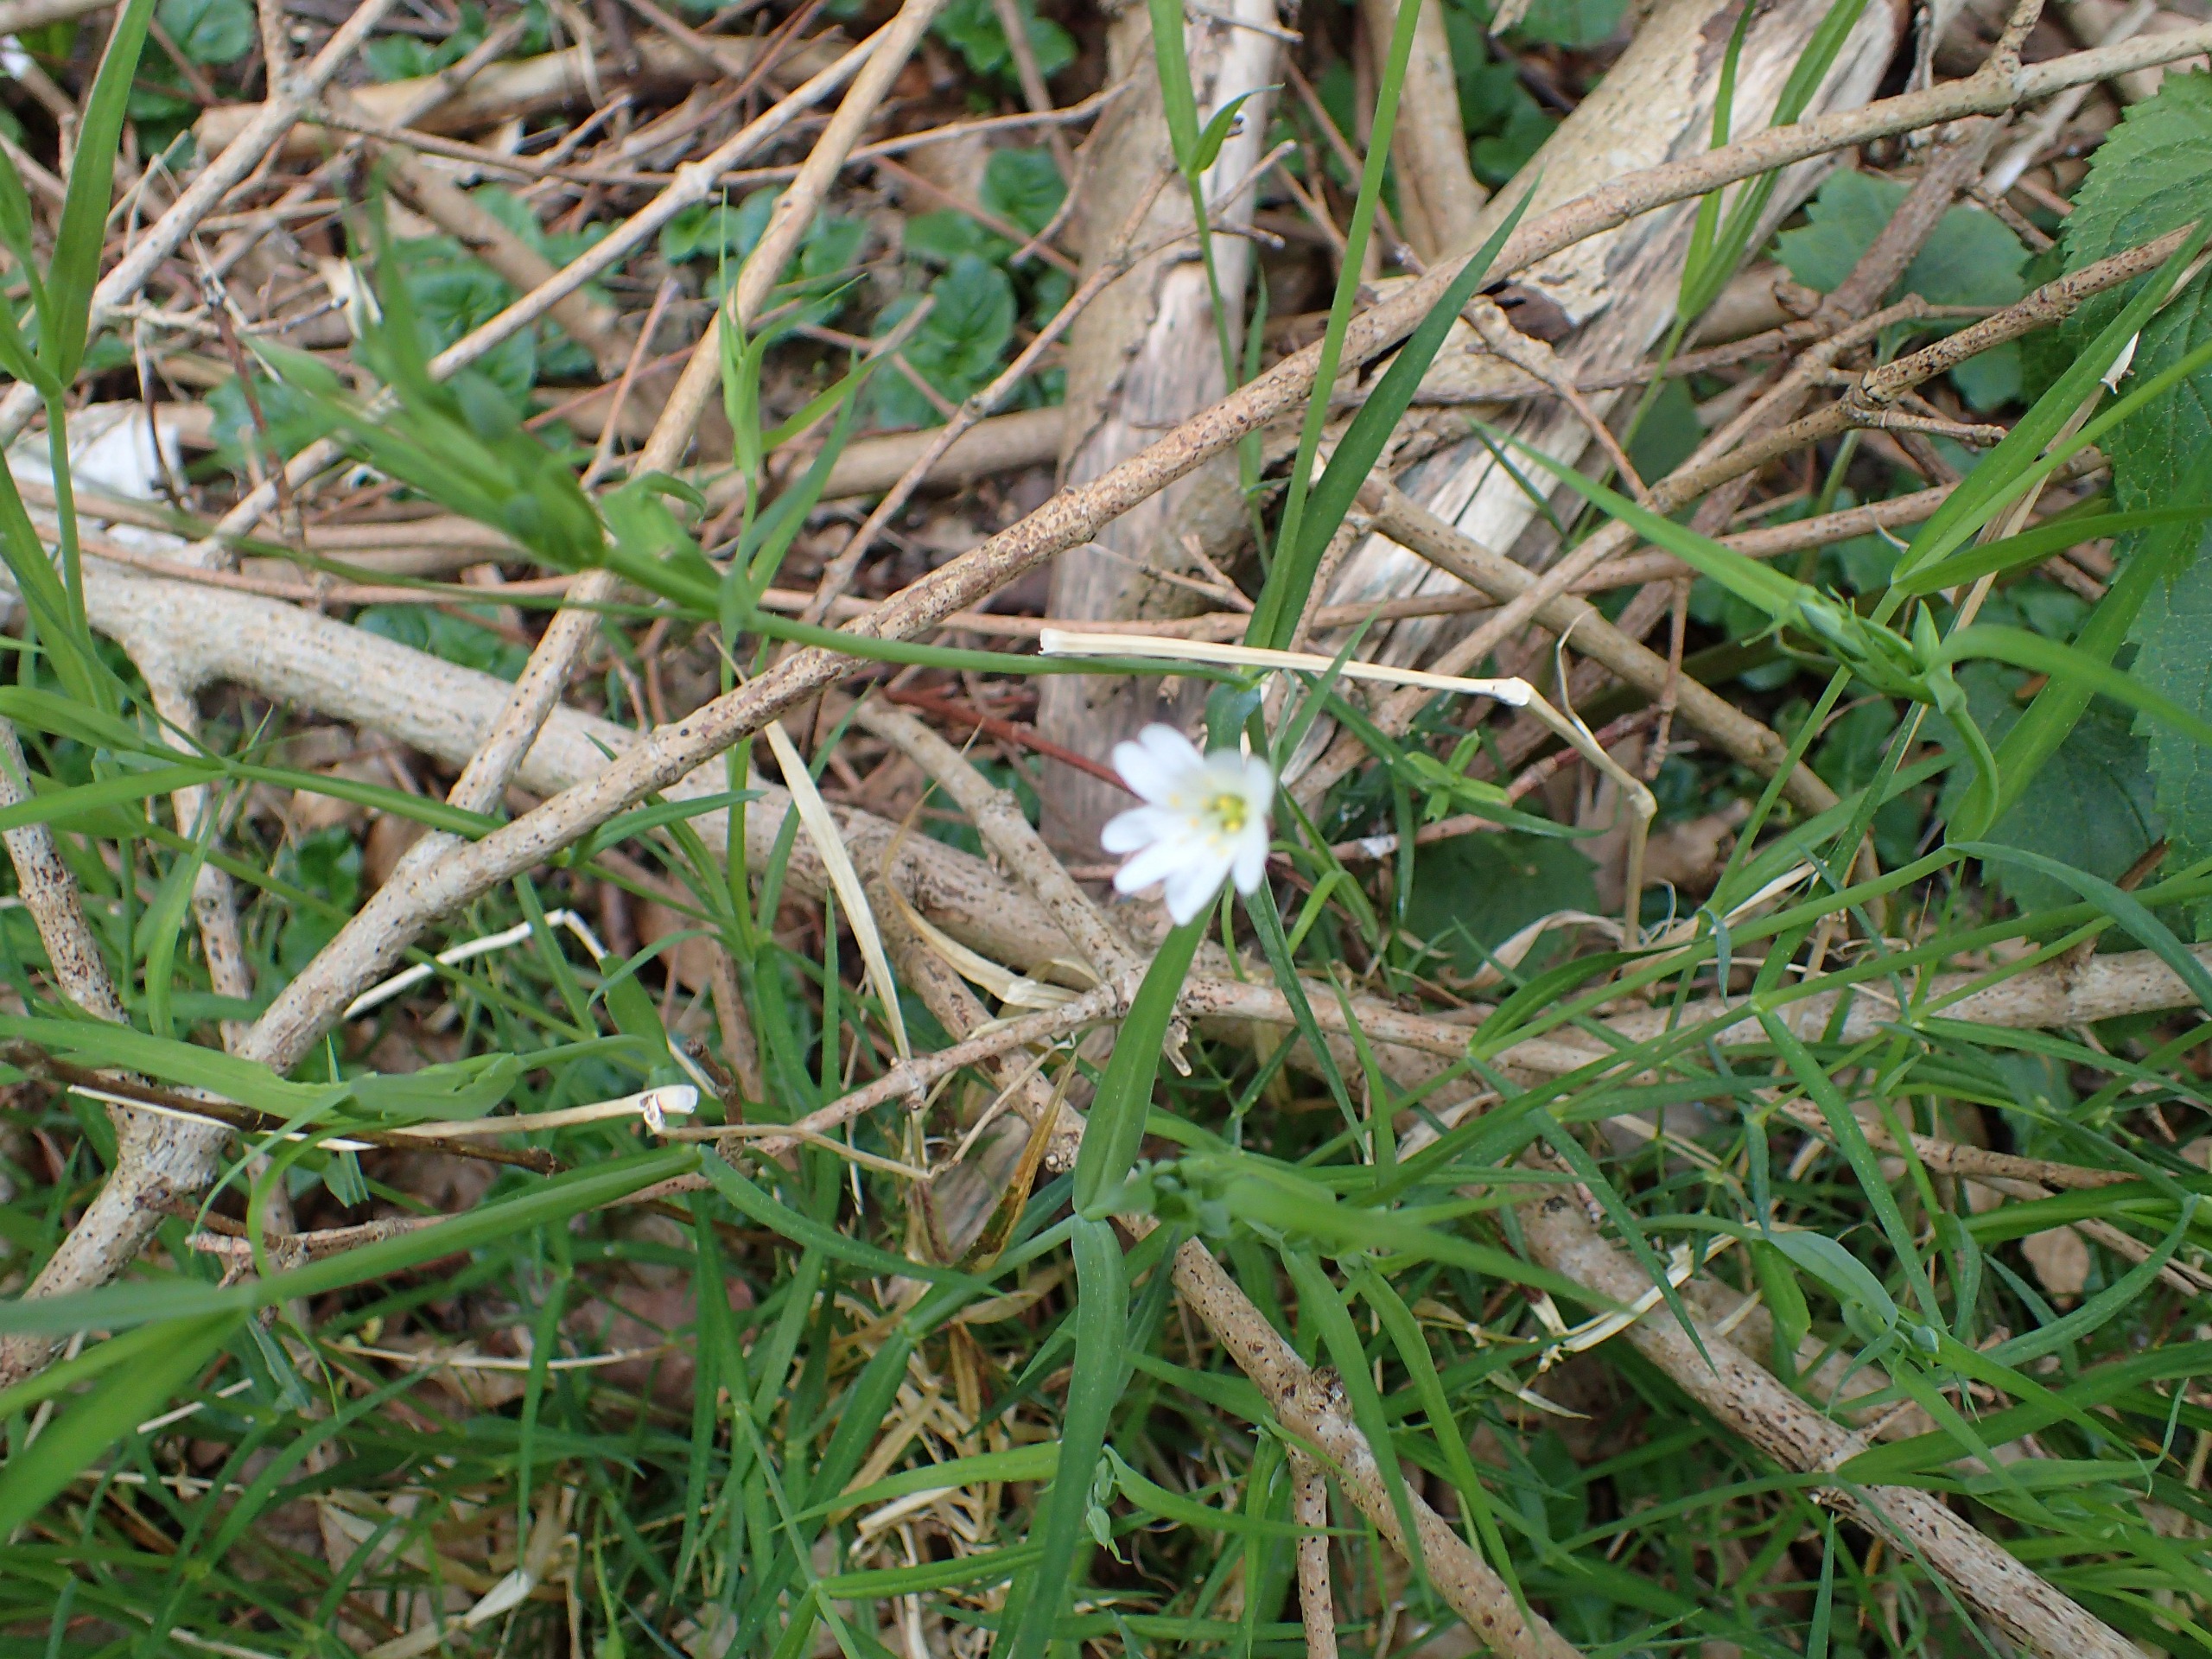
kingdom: Plantae
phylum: Tracheophyta
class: Magnoliopsida
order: Caryophyllales
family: Caryophyllaceae
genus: Rabelera
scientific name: Rabelera holostea
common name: Stor fladstjerne
